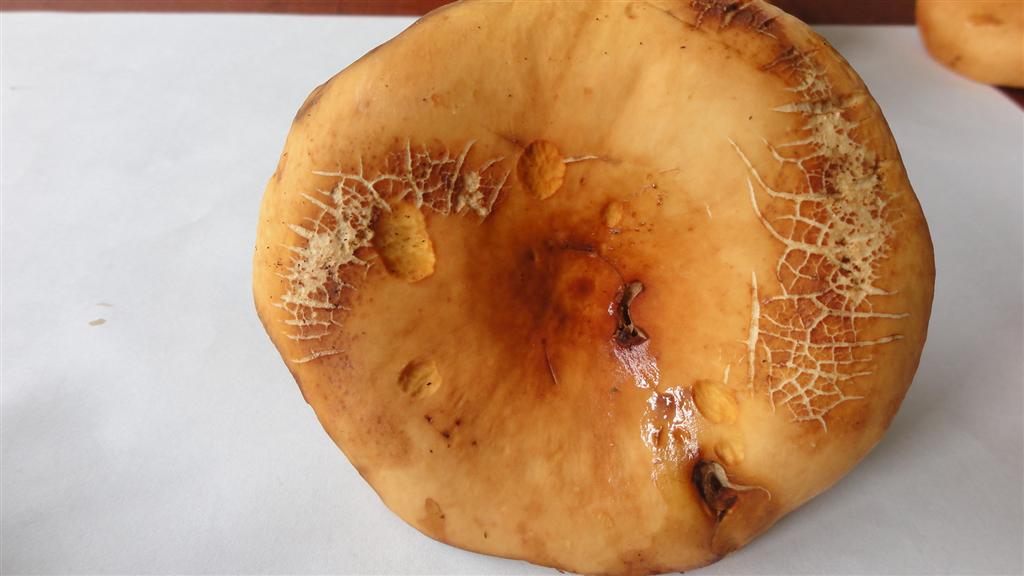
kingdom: Fungi
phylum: Basidiomycota
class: Agaricomycetes
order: Russulales
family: Russulaceae
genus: Lactifluus
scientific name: Lactifluus volemus
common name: spiselig mælkehat
